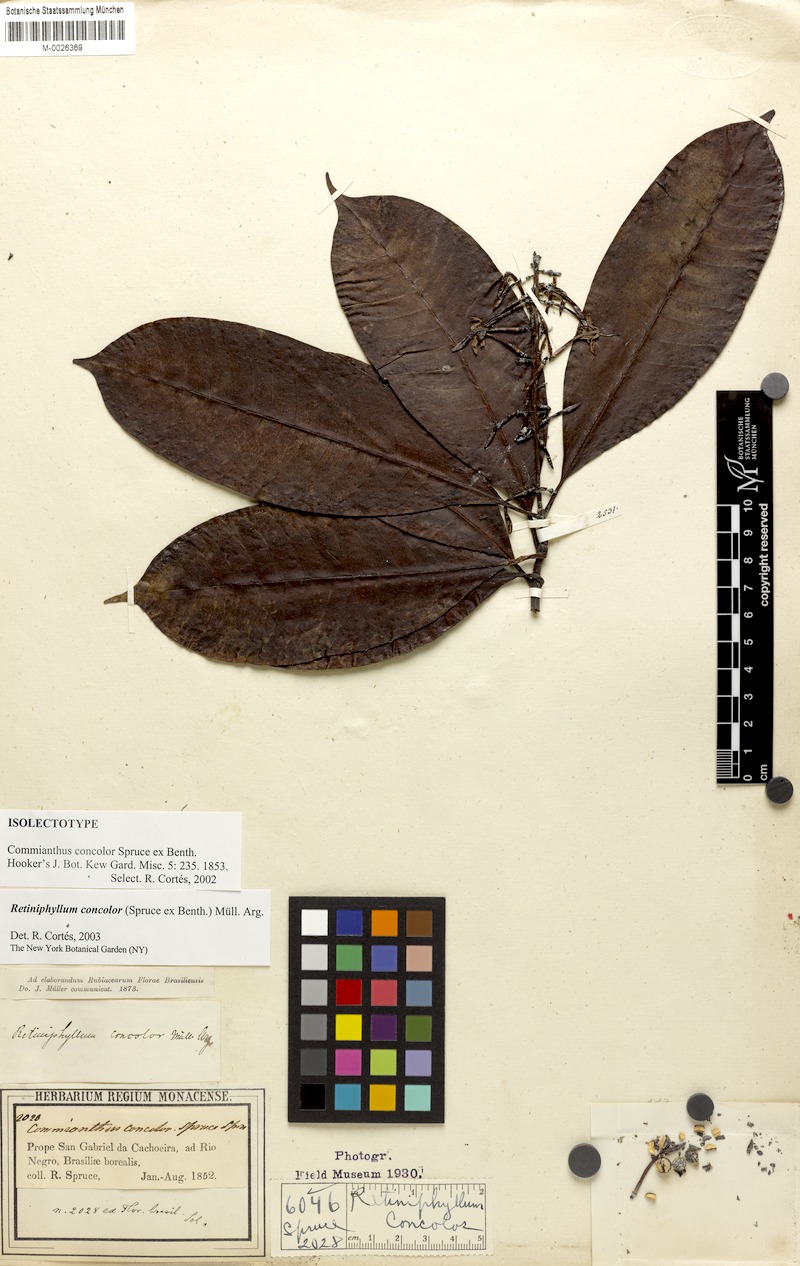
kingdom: Plantae
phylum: Tracheophyta
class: Magnoliopsida
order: Gentianales
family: Rubiaceae
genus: Retiniphyllum
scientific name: Retiniphyllum concolor
